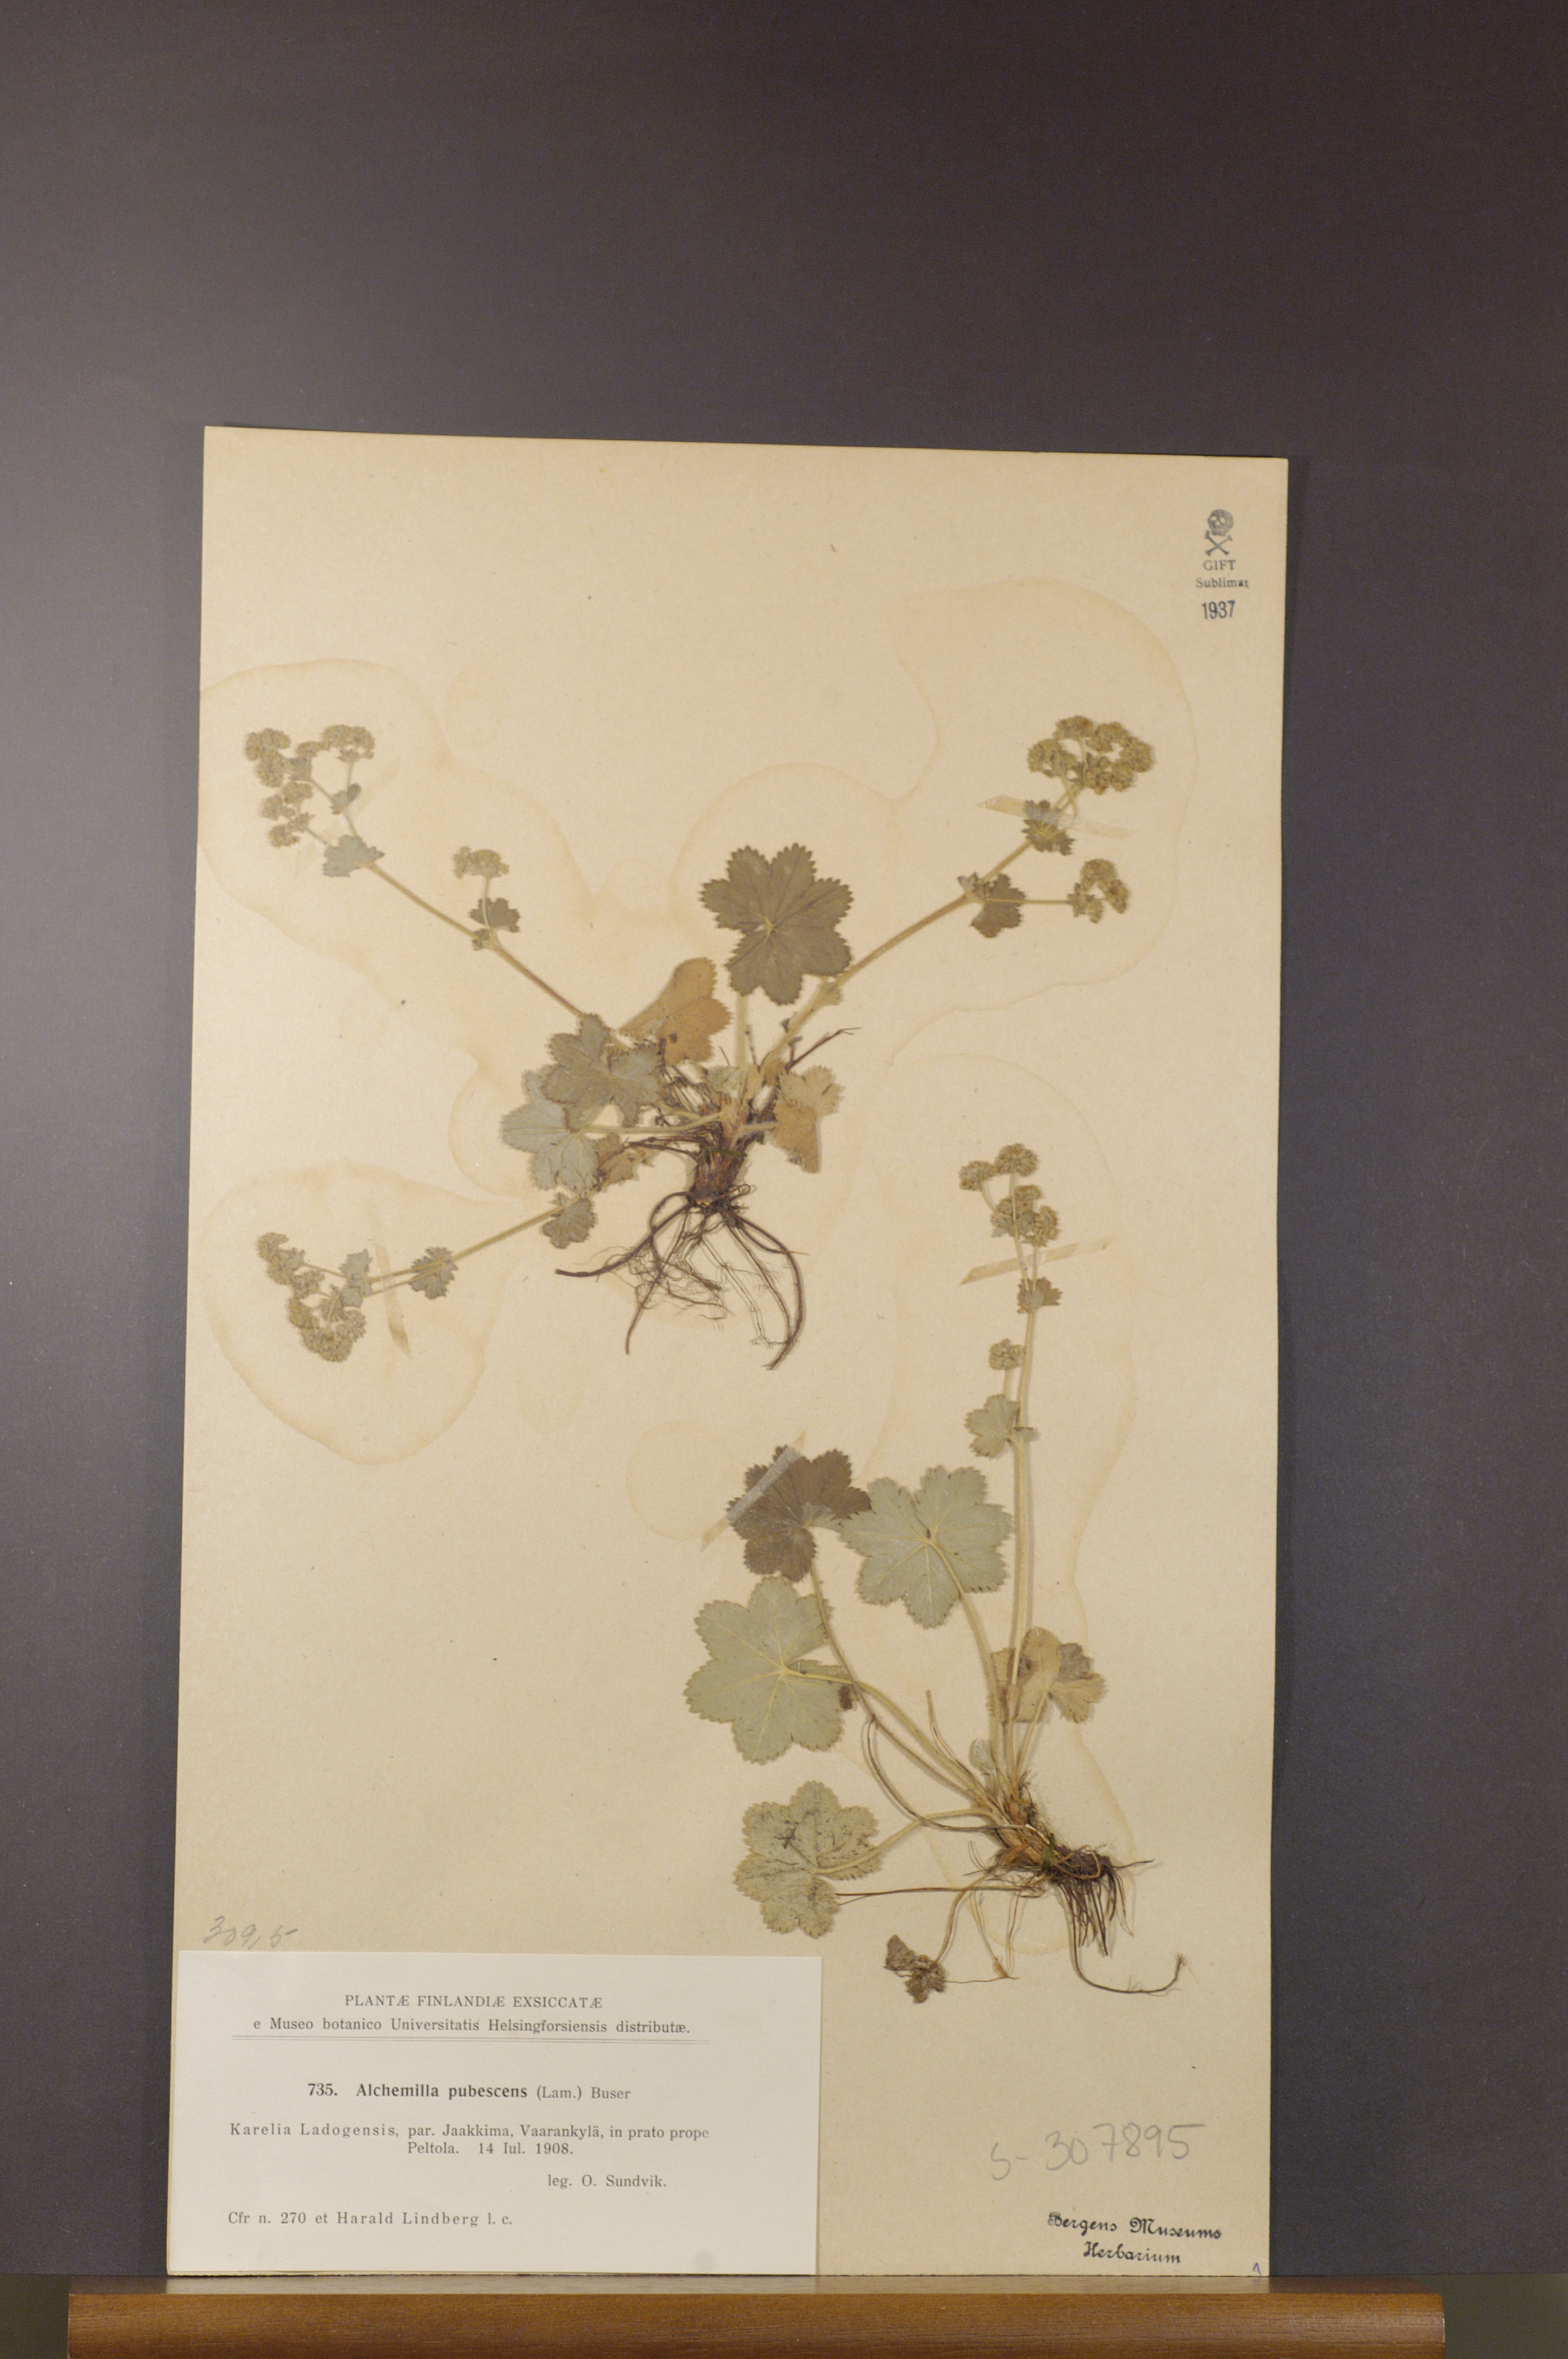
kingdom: Plantae
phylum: Tracheophyta
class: Magnoliopsida
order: Rosales
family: Rosaceae
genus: Alchemilla
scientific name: Alchemilla glaucescens
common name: Silky lady's mantle
